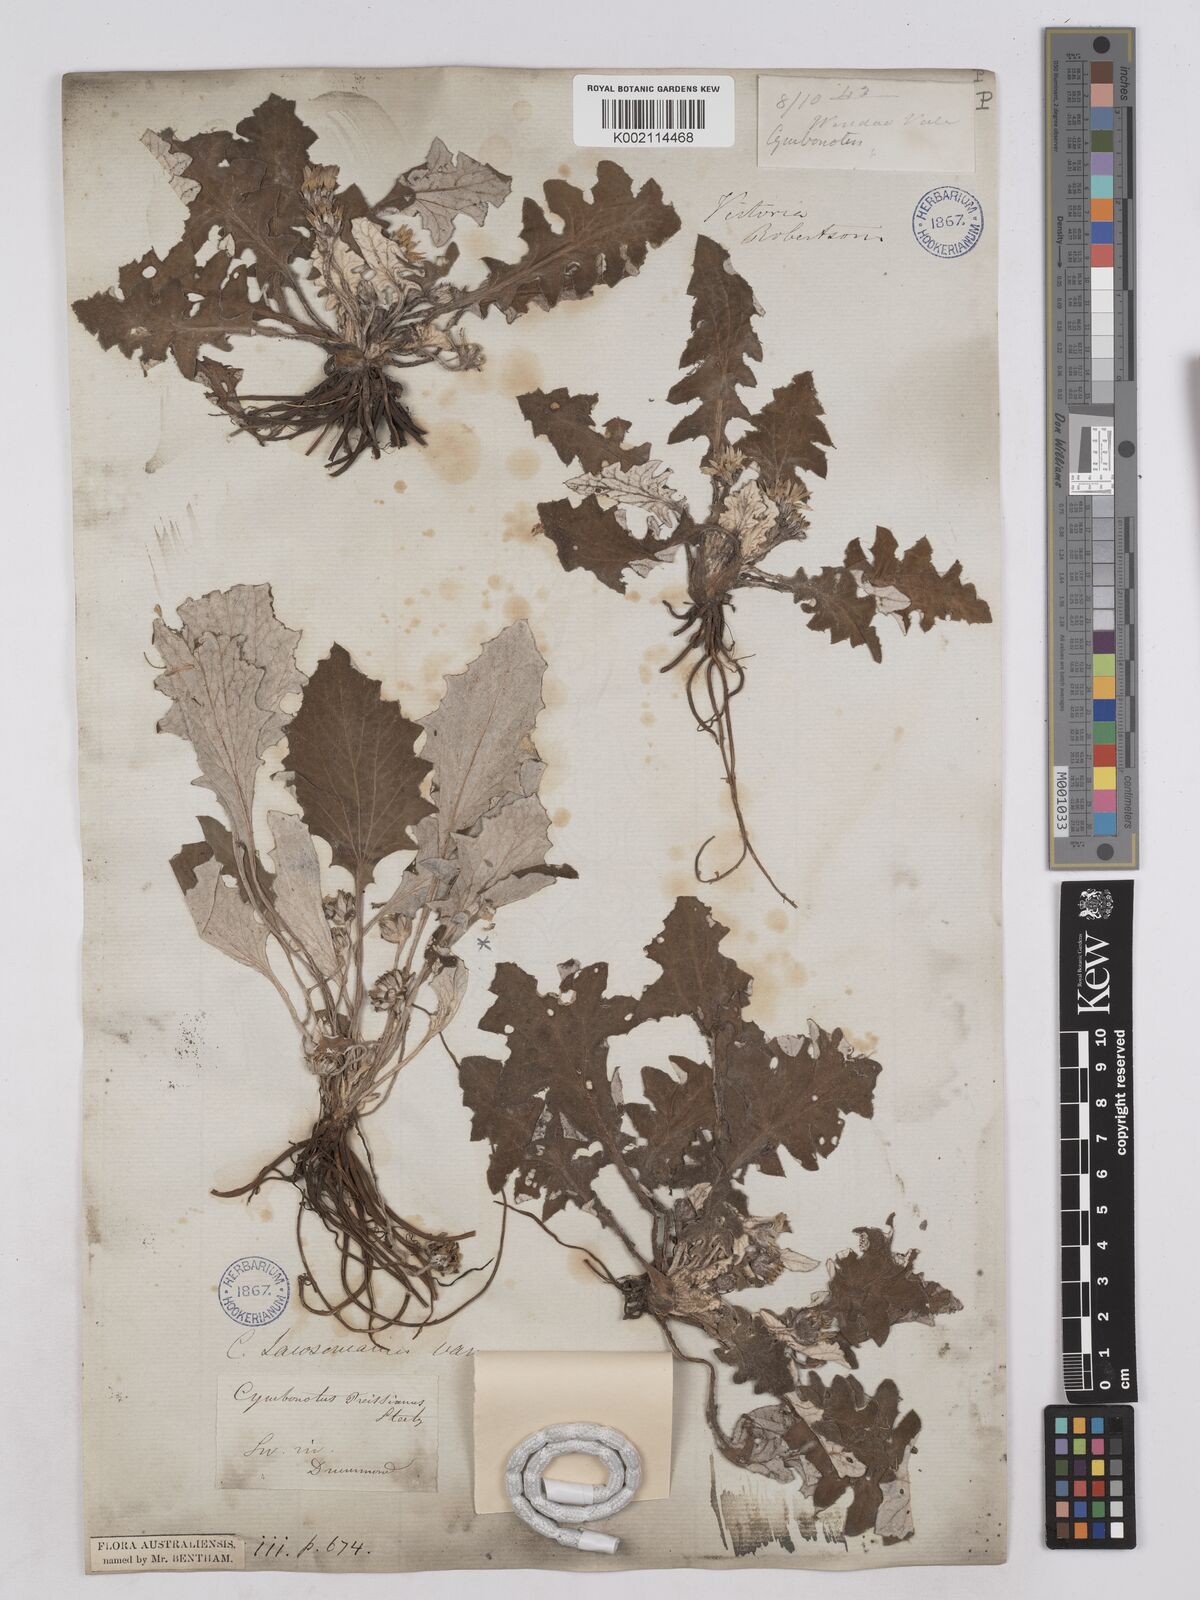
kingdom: Plantae
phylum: Tracheophyta
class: Magnoliopsida
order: Asterales
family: Asteraceae
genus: Cymbonotus
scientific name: Cymbonotus
